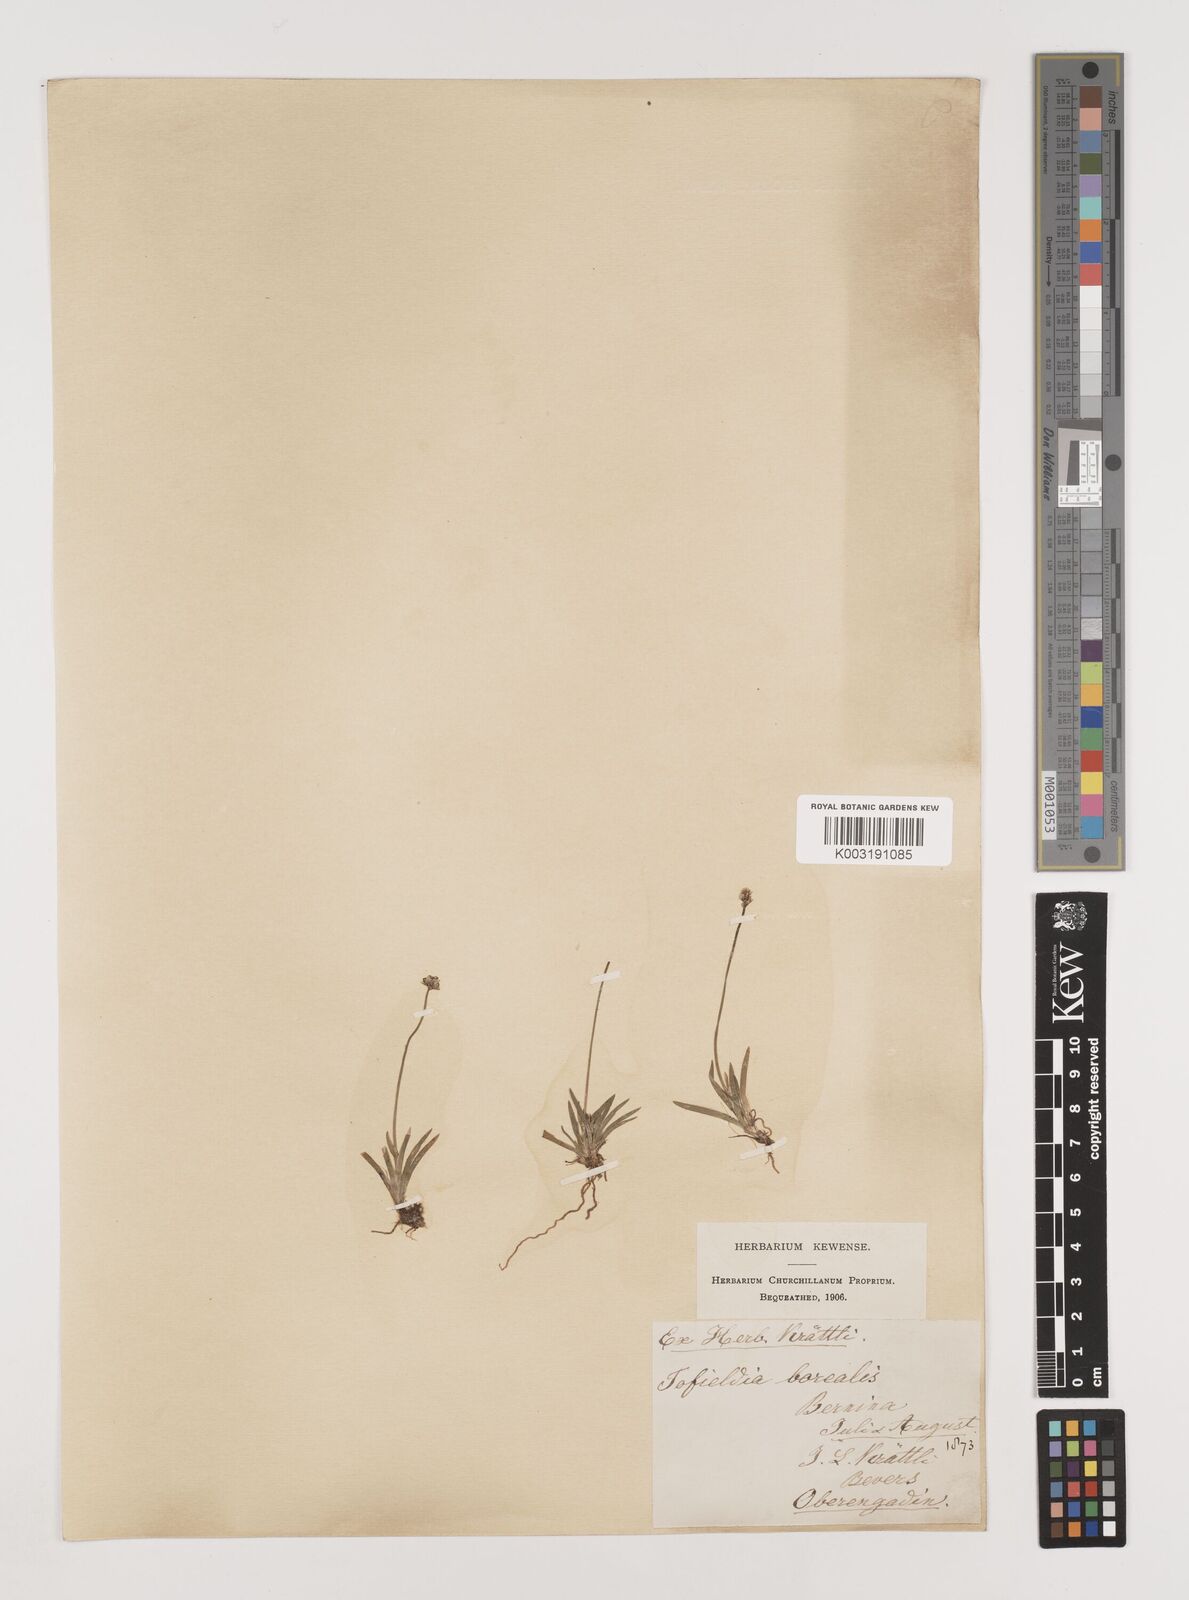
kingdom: Plantae
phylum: Tracheophyta
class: Liliopsida
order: Alismatales
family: Tofieldiaceae
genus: Tofieldia
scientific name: Tofieldia pusilla
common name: Scottish false asphodel
